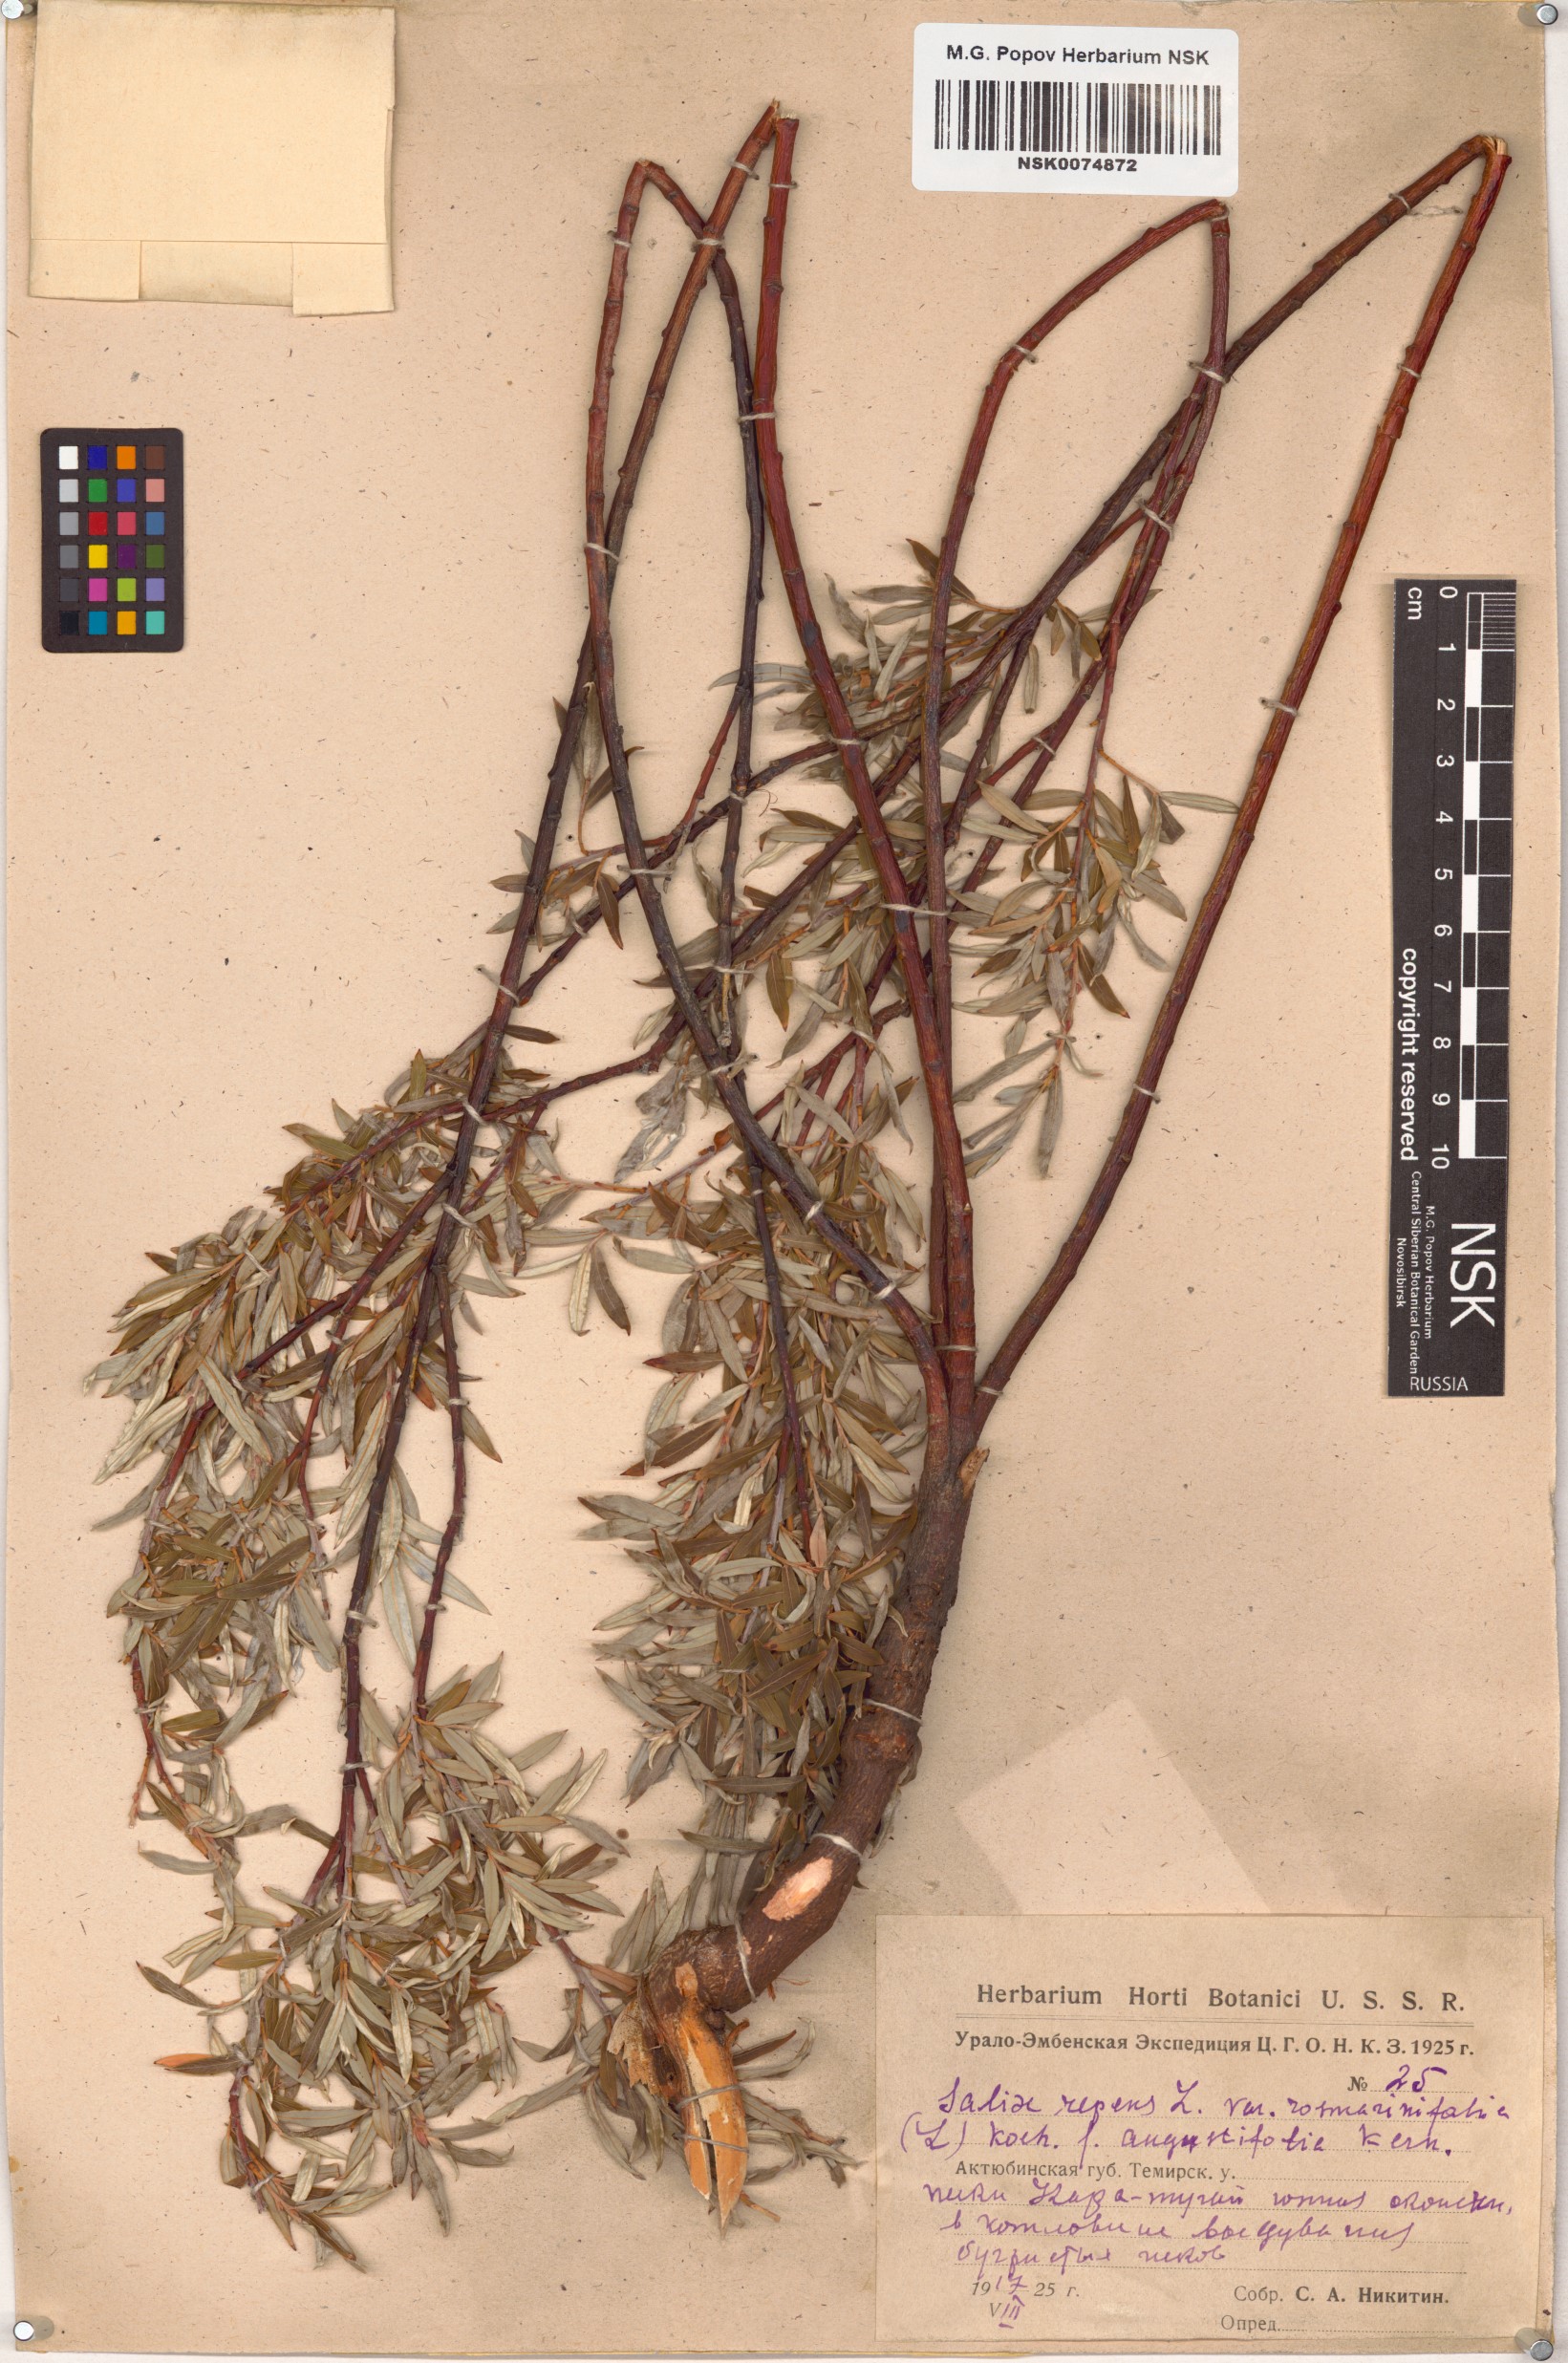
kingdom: Plantae
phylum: Tracheophyta
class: Magnoliopsida
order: Malpighiales
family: Salicaceae
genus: Salix
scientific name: Salix
